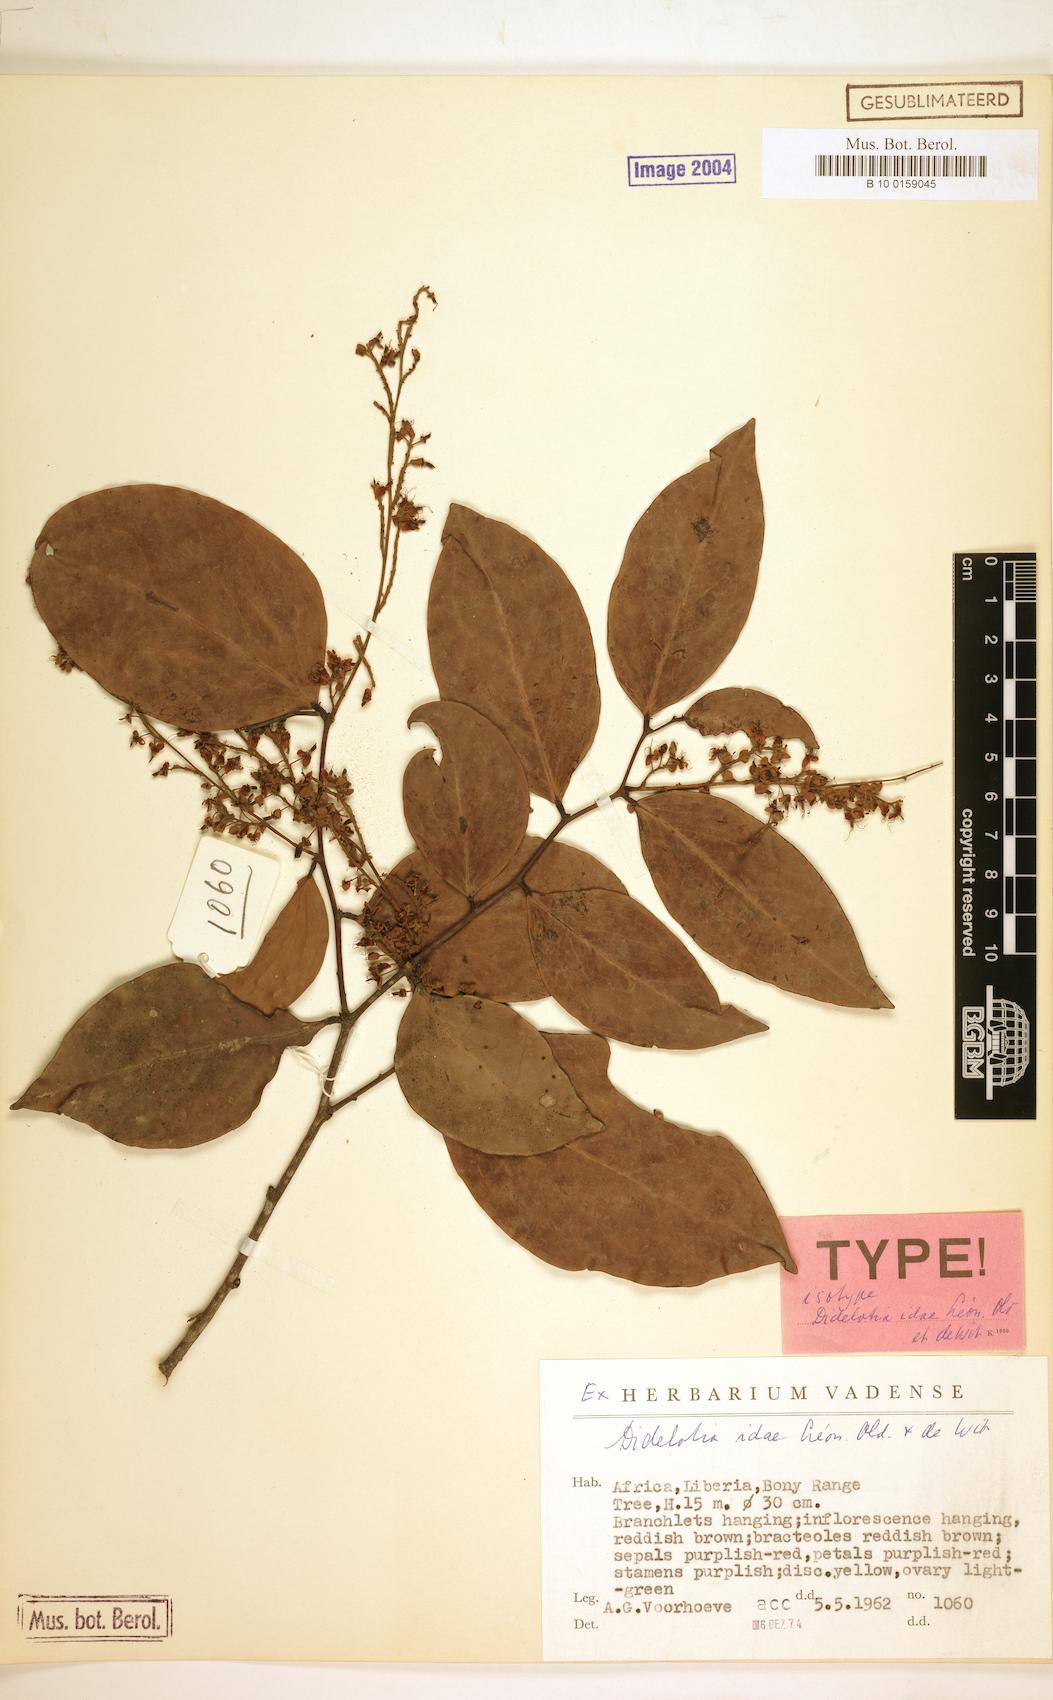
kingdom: Plantae
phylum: Tracheophyta
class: Magnoliopsida
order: Fabales
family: Fabaceae
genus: Didelotia
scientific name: Didelotia idae
